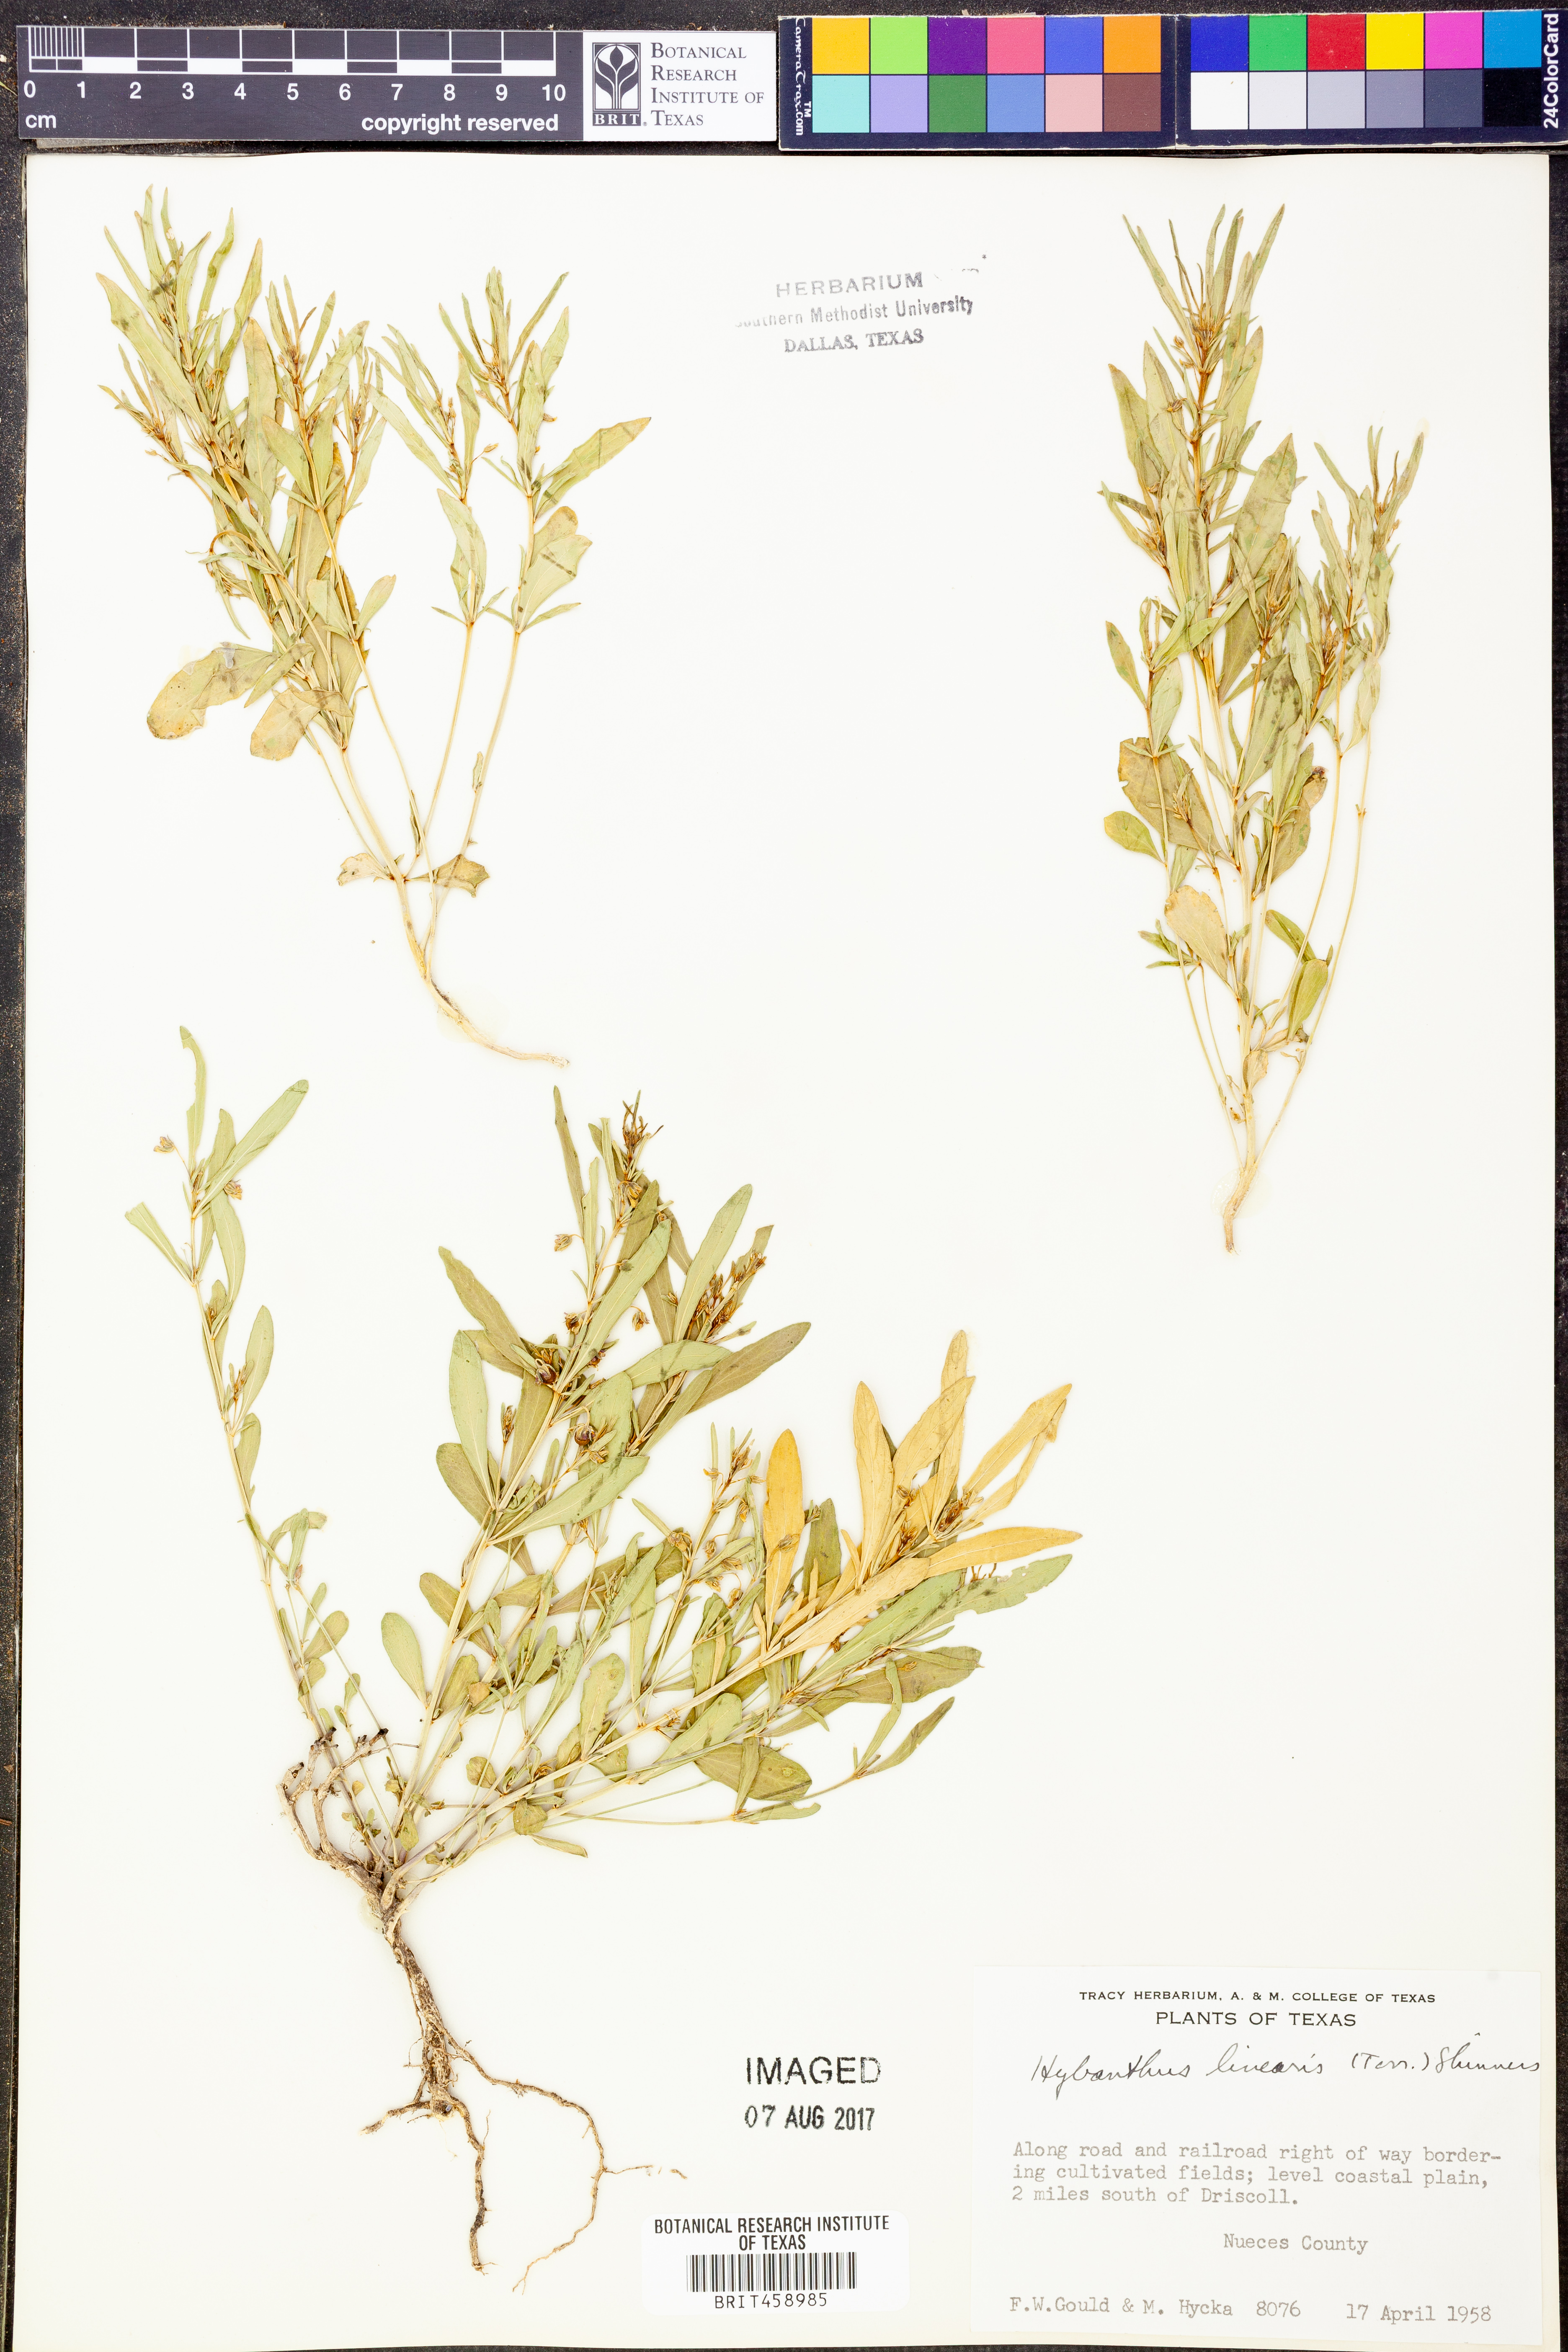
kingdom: Plantae
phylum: Tracheophyta
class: Magnoliopsida
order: Malpighiales
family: Violaceae
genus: Pombalia
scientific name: Pombalia verticillata
